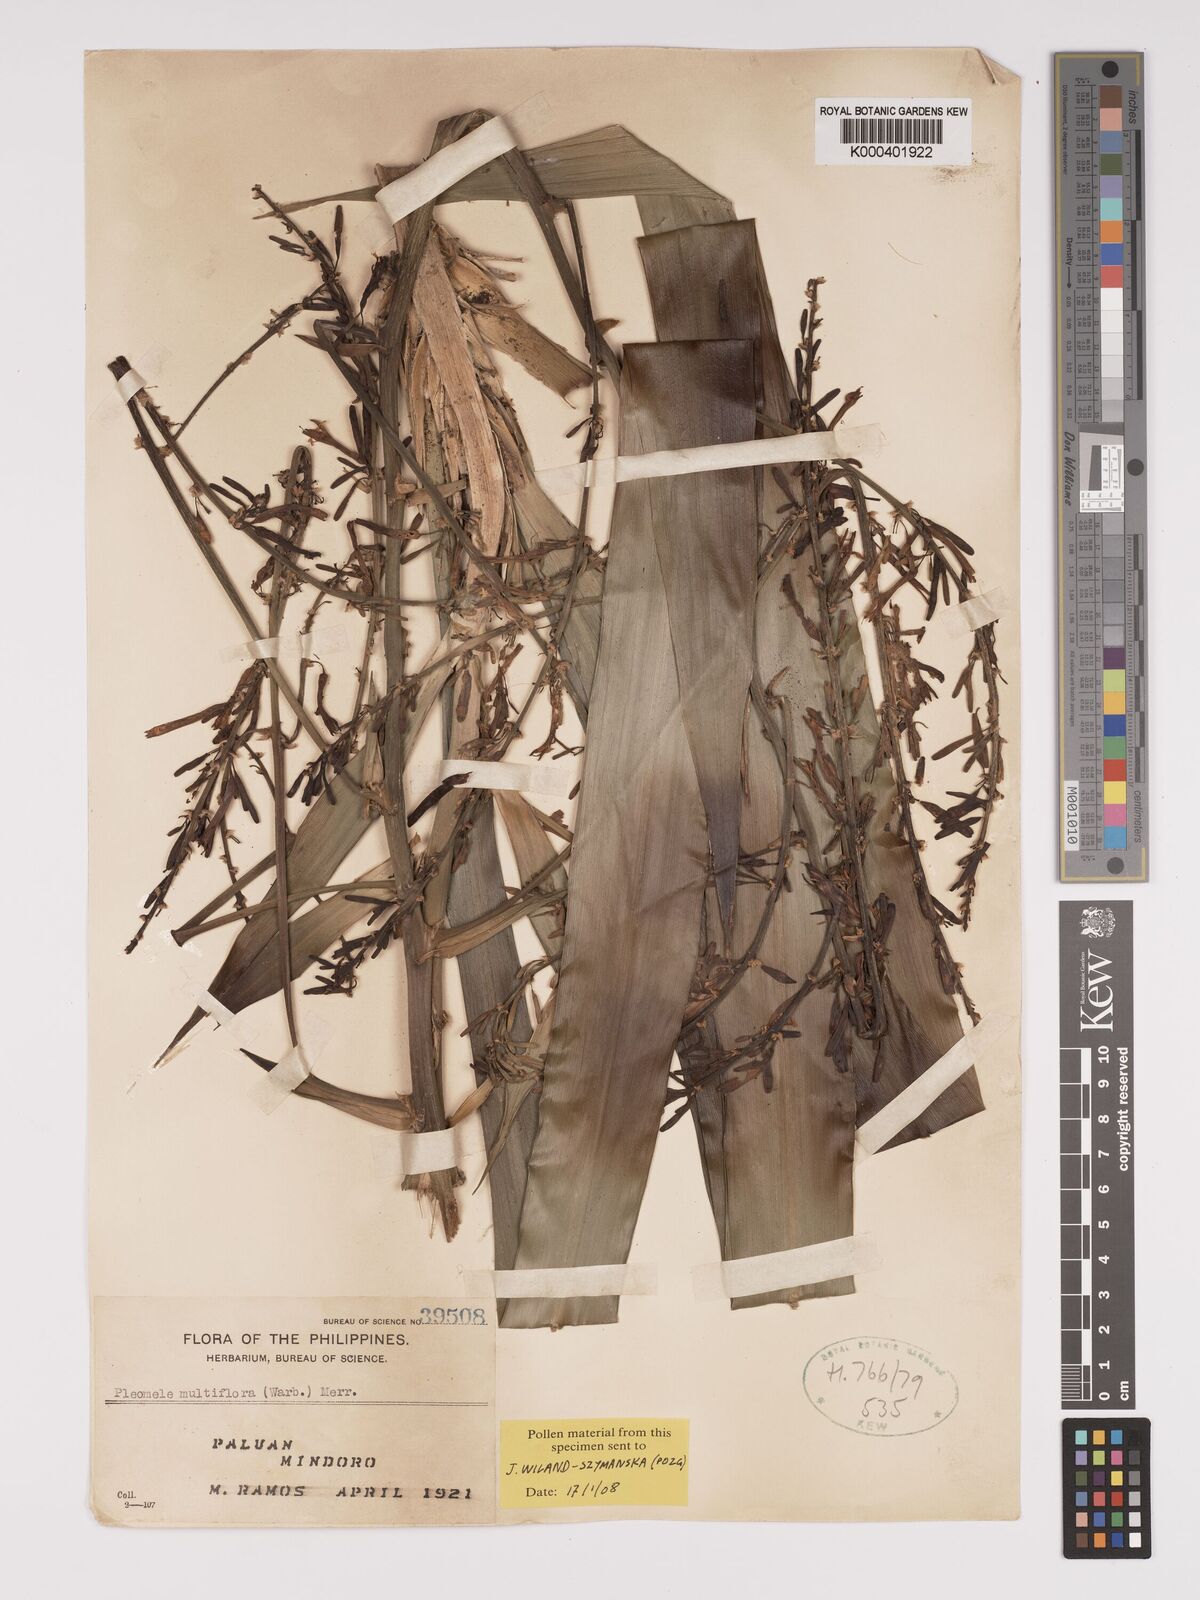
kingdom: Plantae
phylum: Tracheophyta
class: Liliopsida
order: Asparagales
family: Asparagaceae
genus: Dracaena
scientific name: Dracaena multiflora
